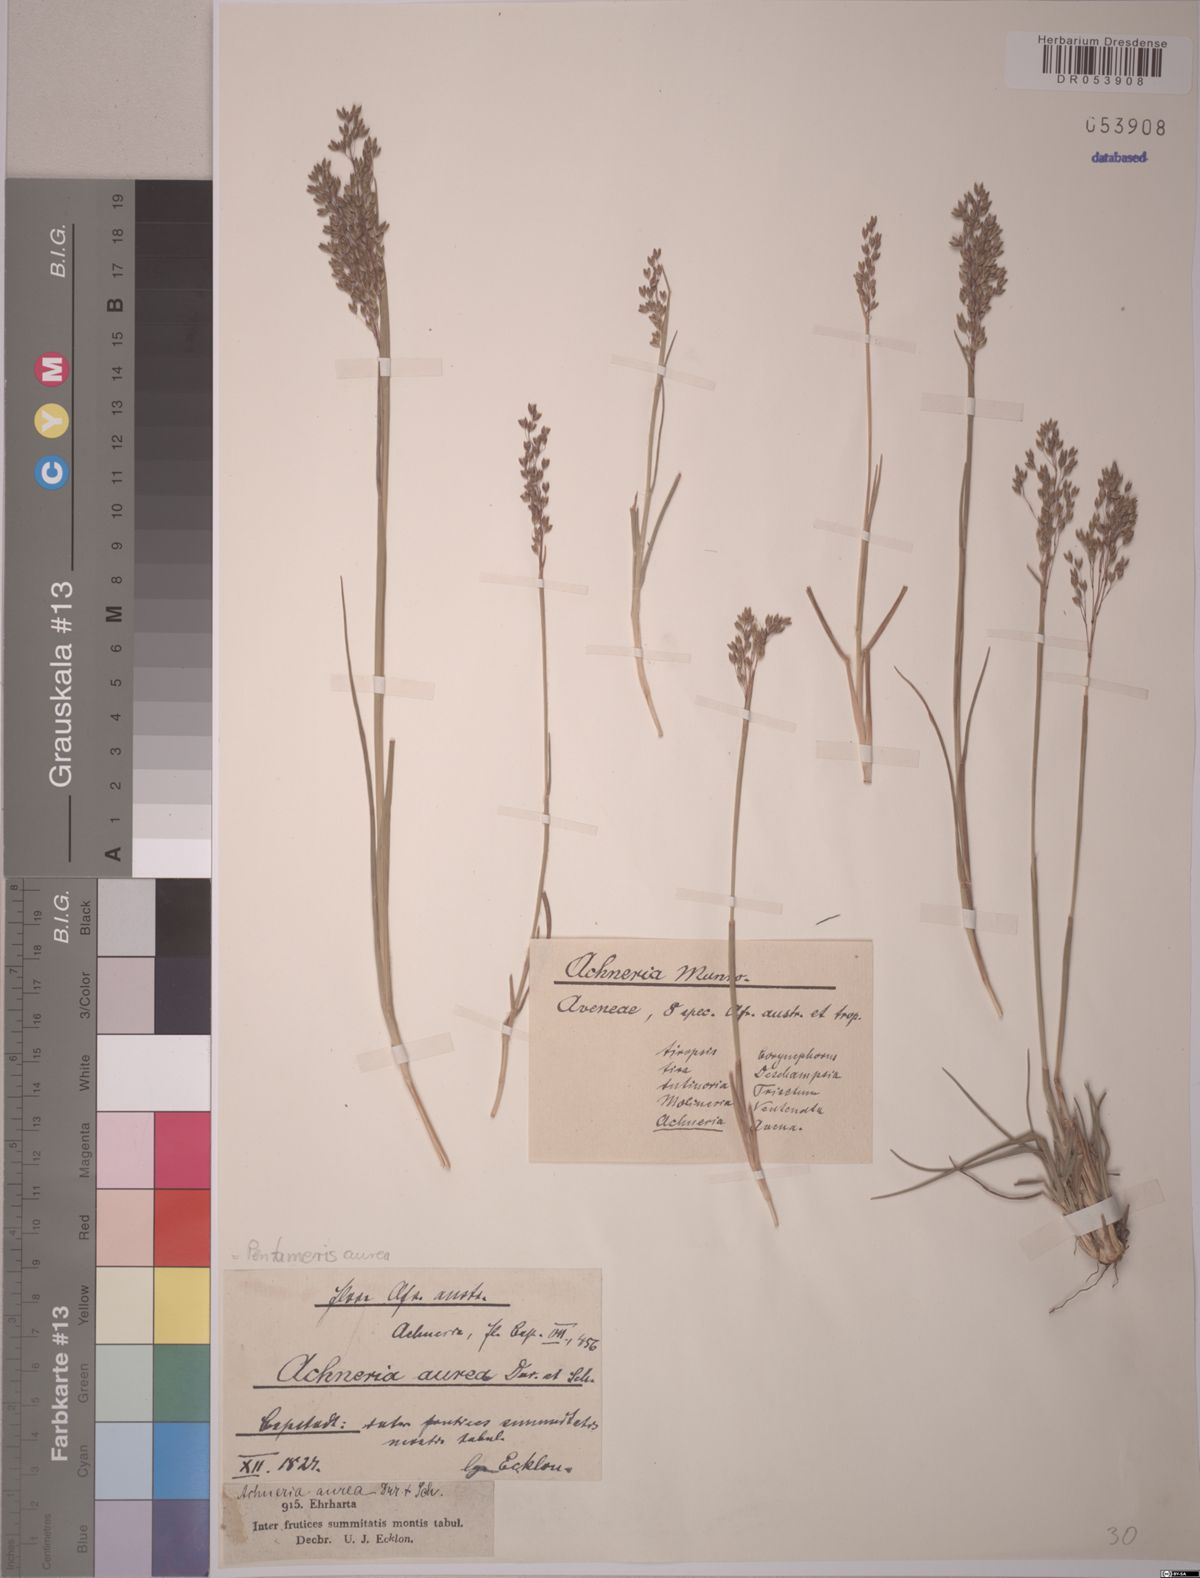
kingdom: Plantae
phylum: Tracheophyta
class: Liliopsida
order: Poales
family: Poaceae
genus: Pentameris
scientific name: Pentameris aurea
